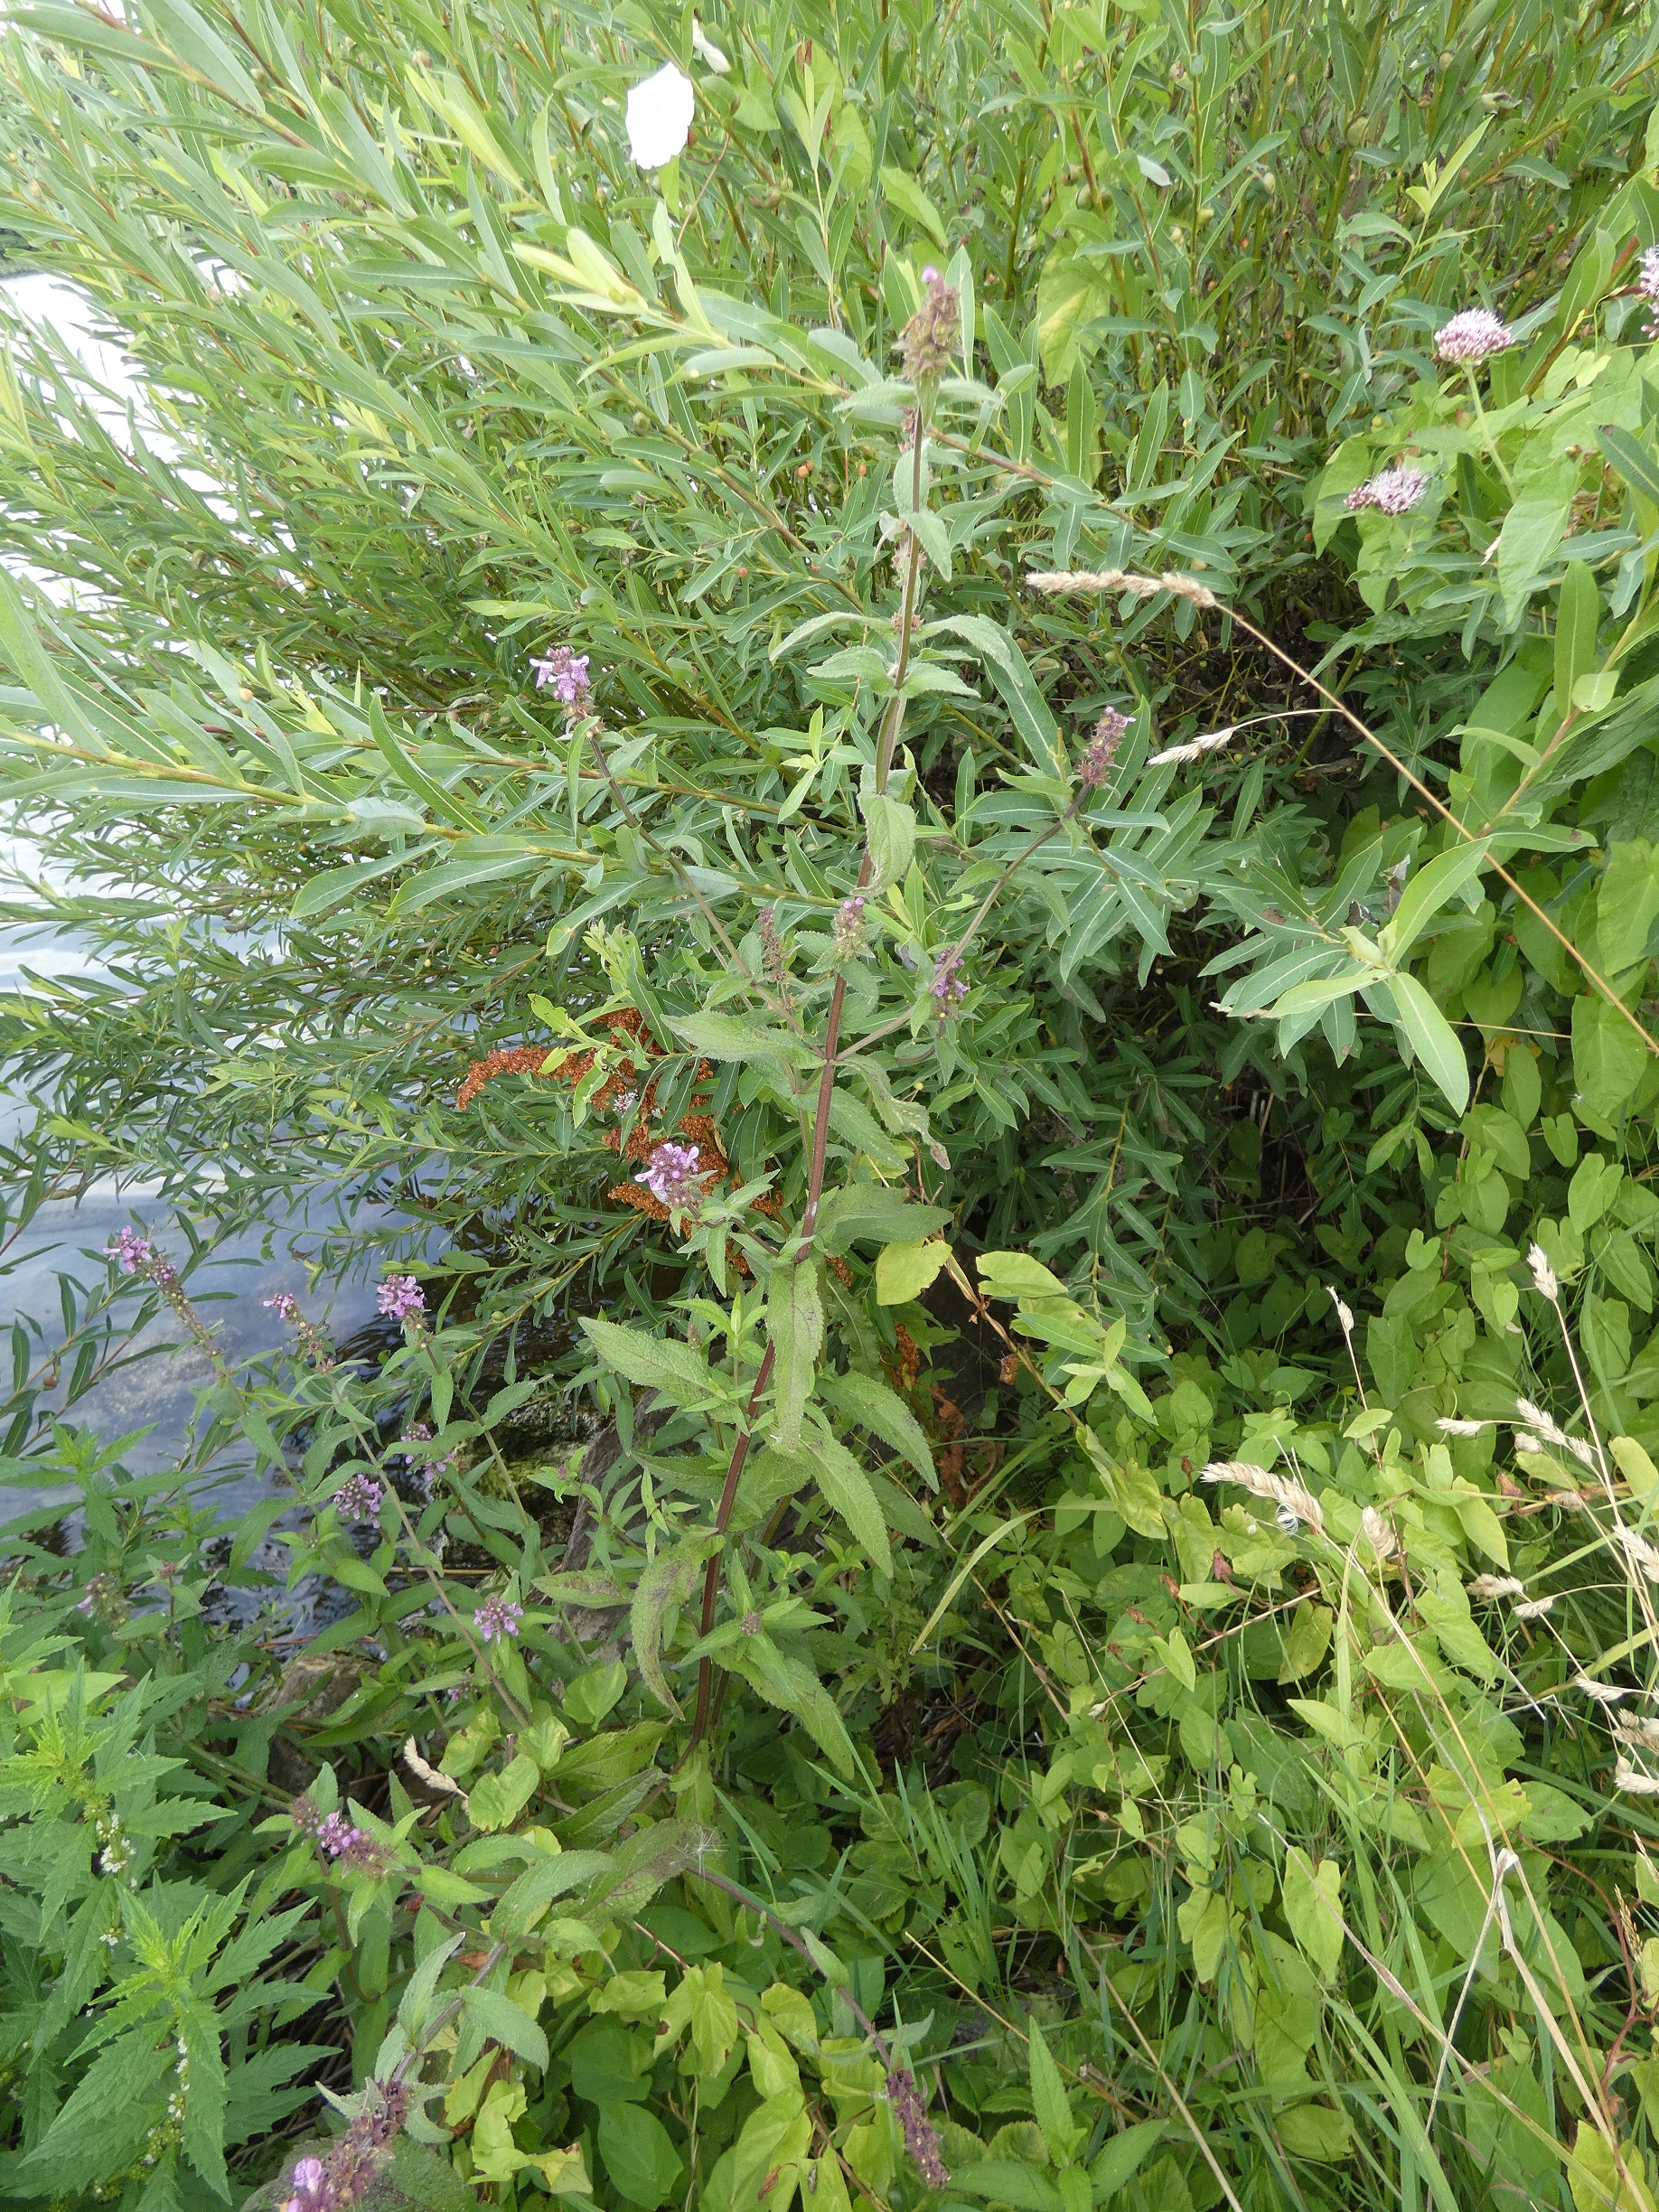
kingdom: Plantae
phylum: Tracheophyta
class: Magnoliopsida
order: Lamiales
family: Lamiaceae
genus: Stachys
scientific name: Stachys palustris
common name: Kær-galtetand
